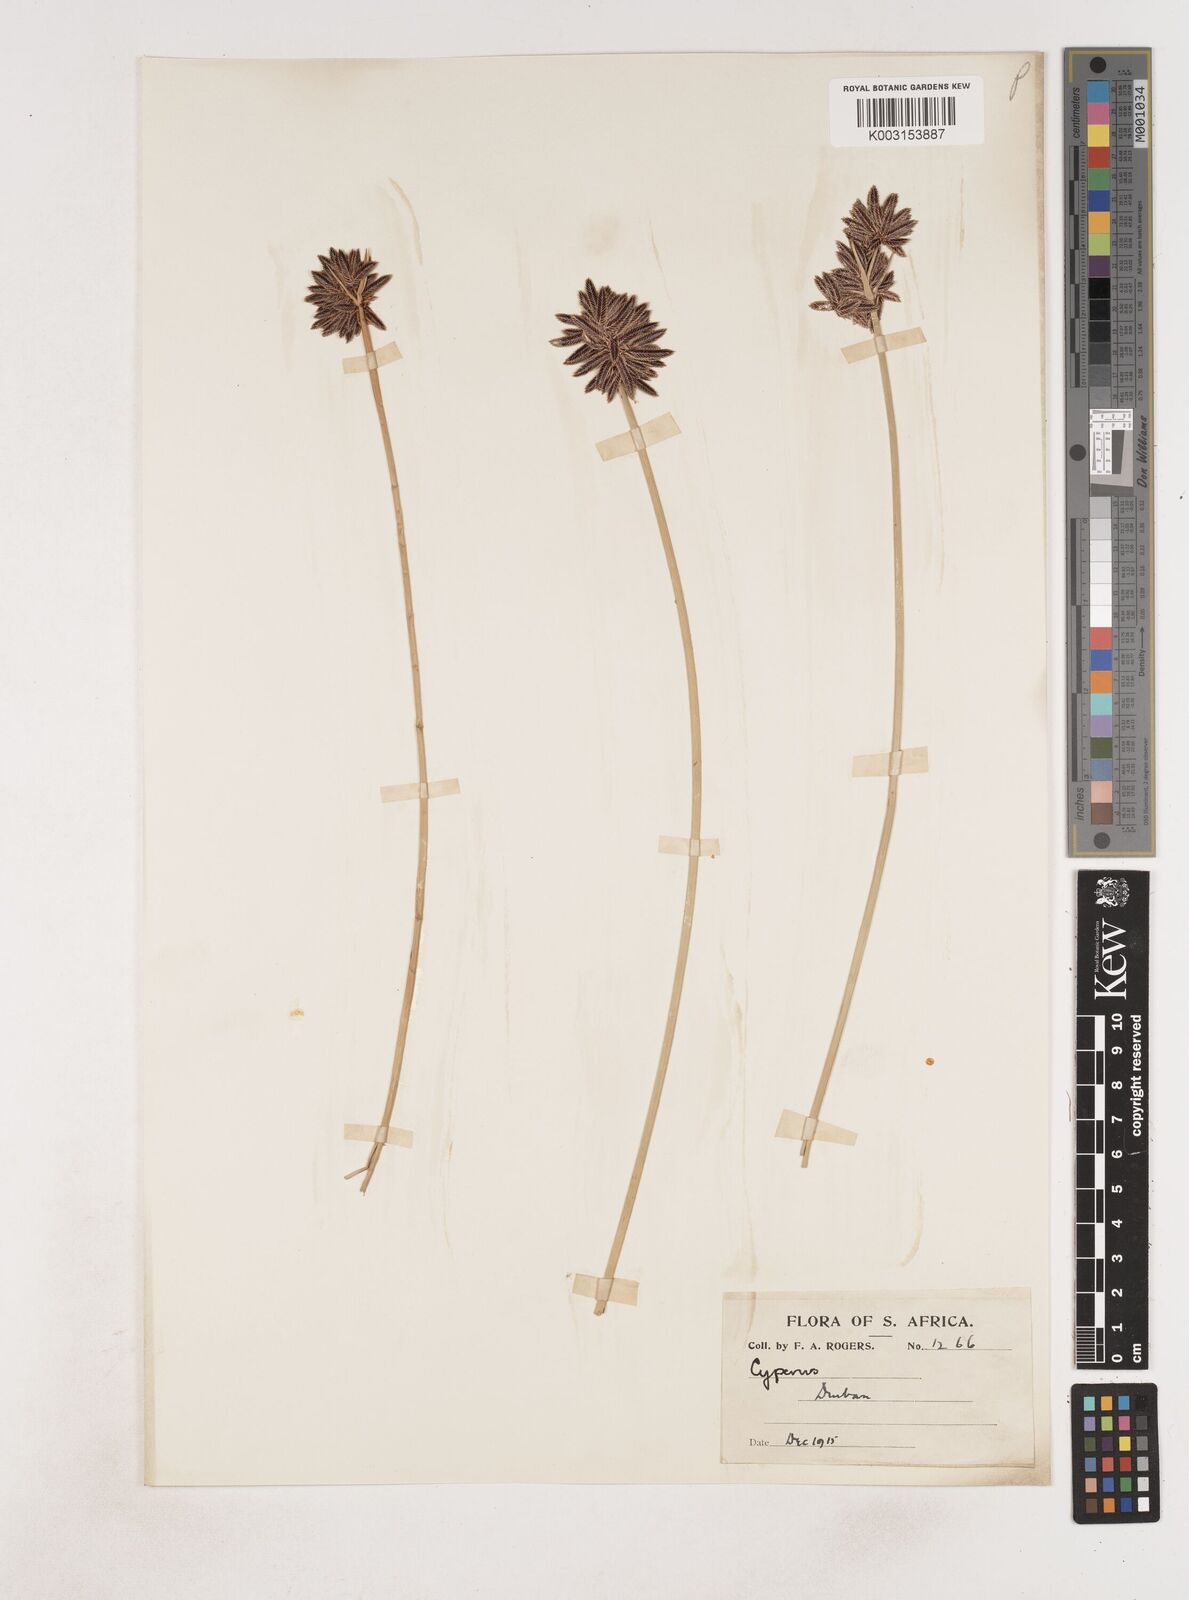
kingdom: Plantae
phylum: Tracheophyta
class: Liliopsida
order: Poales
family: Cyperaceae
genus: Cyperus
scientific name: Cyperus
